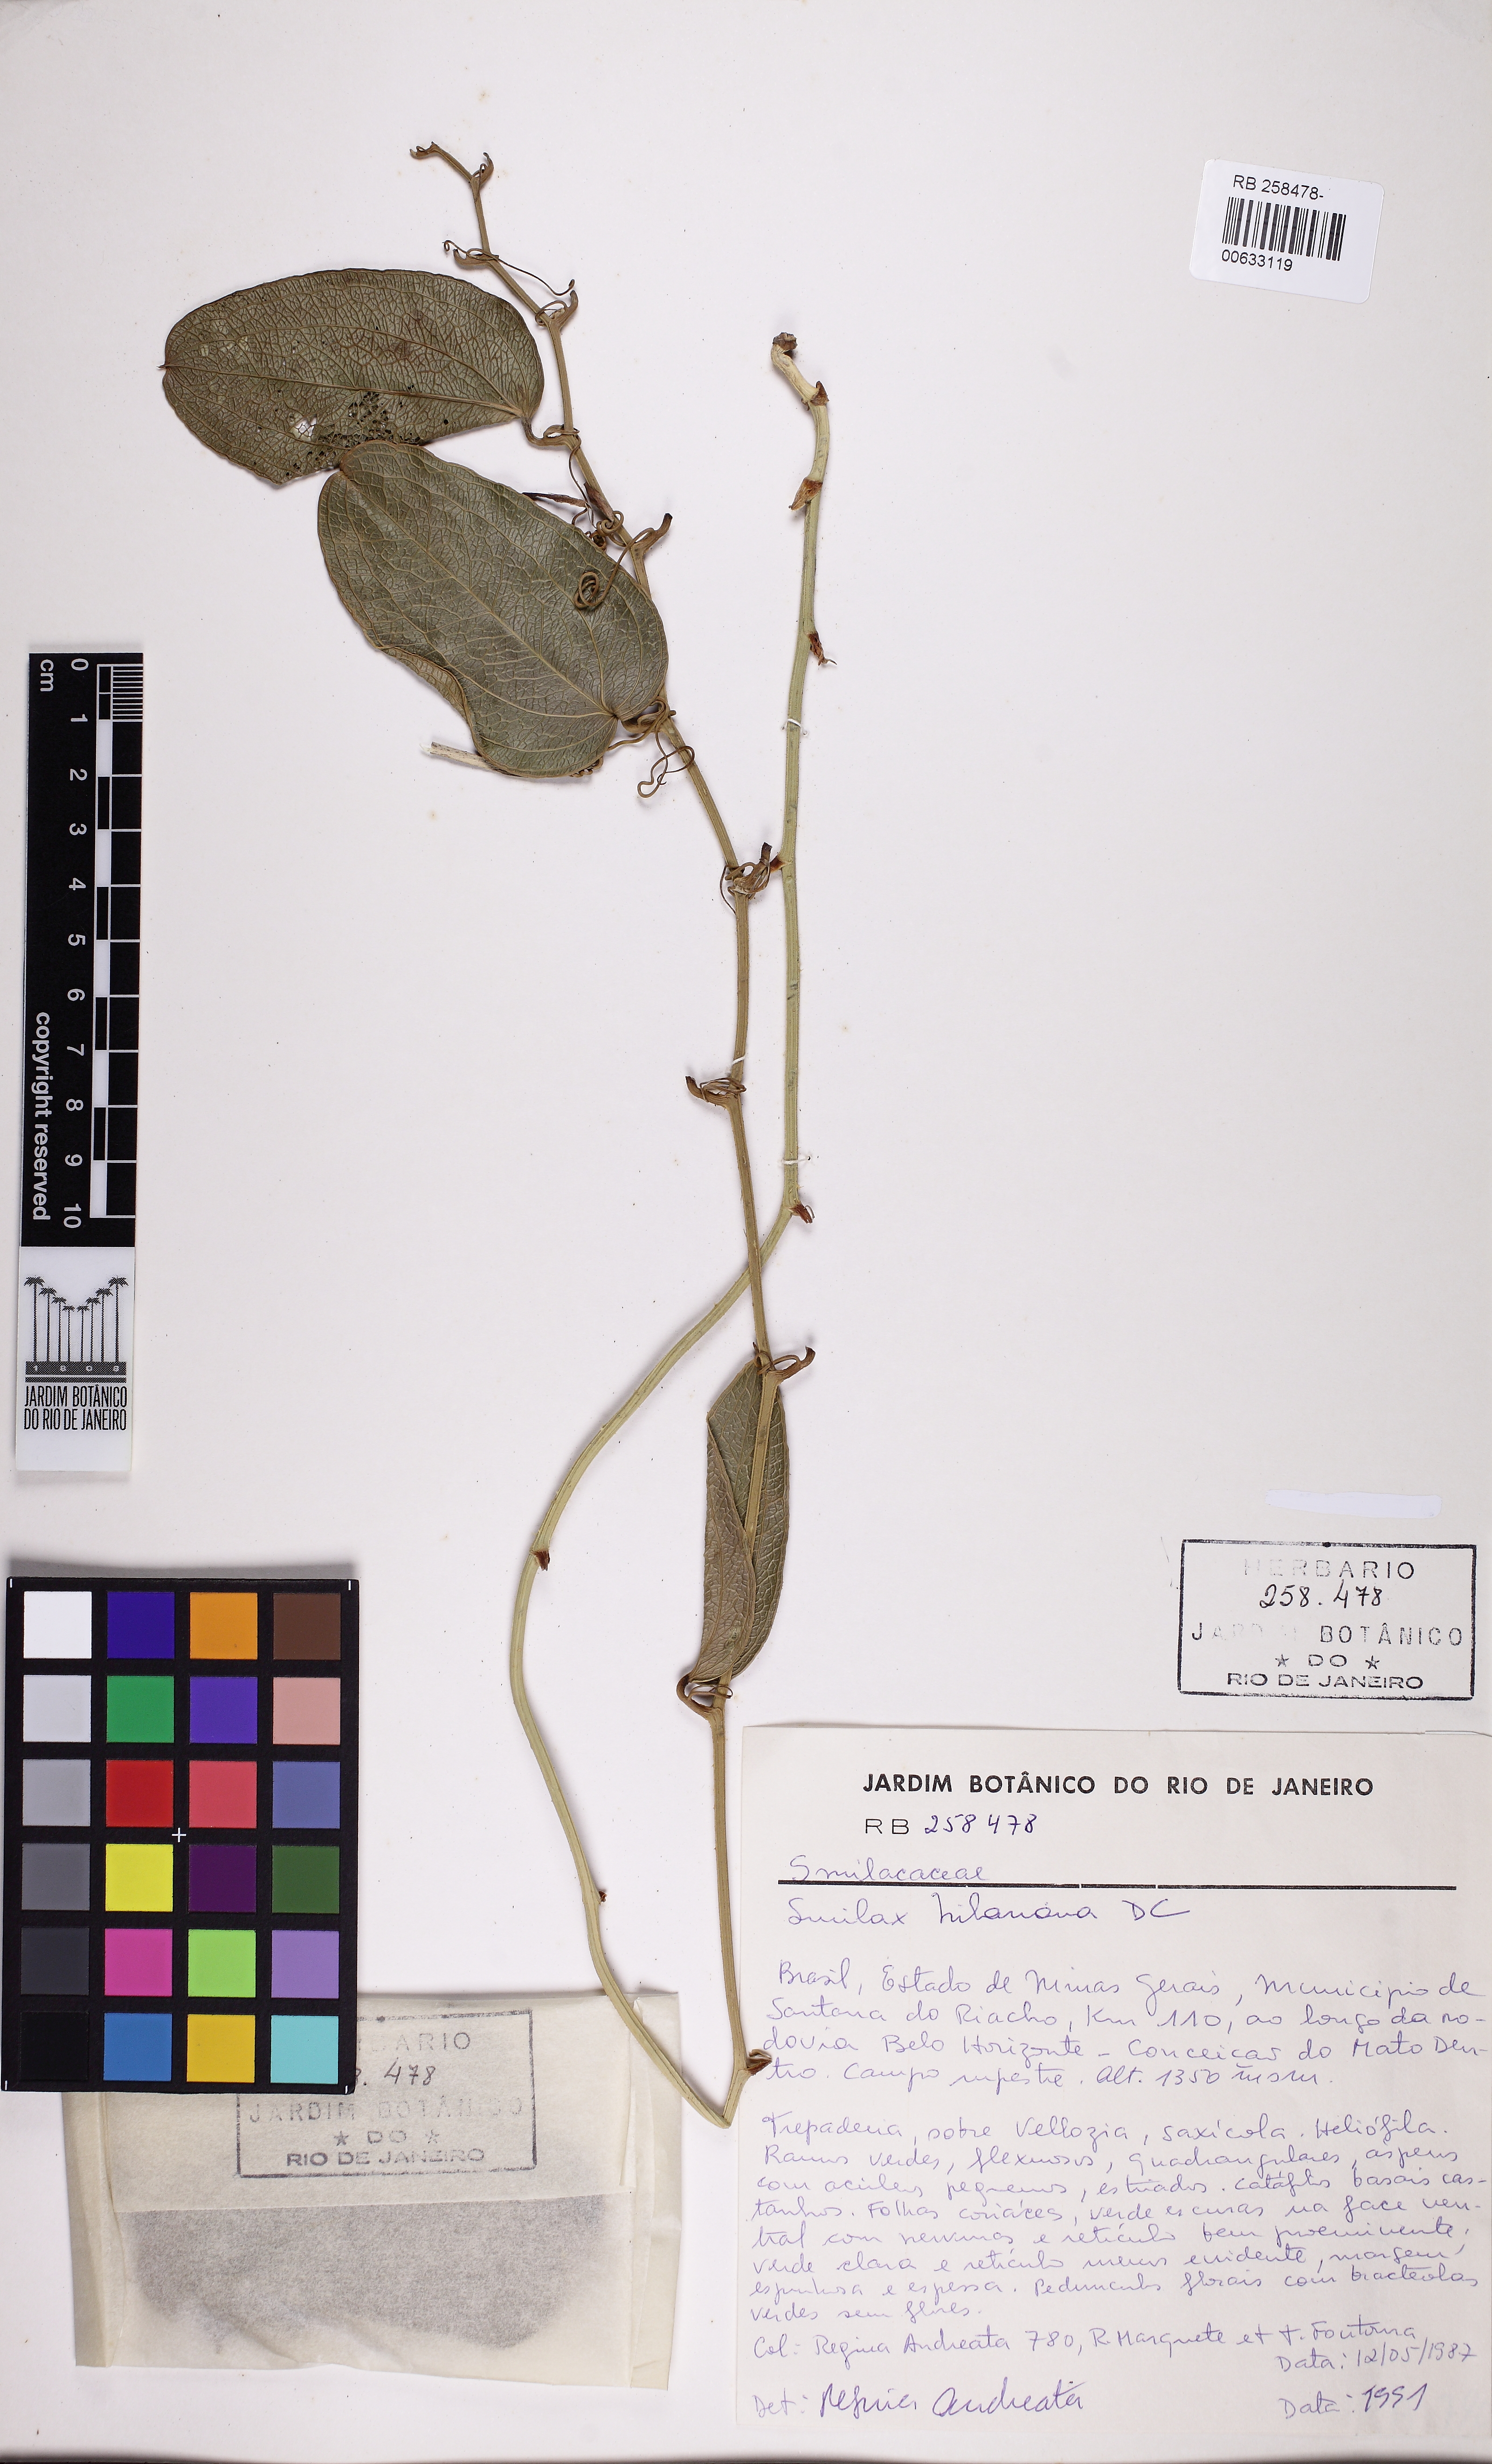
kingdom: Plantae
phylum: Tracheophyta
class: Liliopsida
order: Liliales
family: Smilacaceae
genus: Smilax
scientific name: Smilax hilariana
